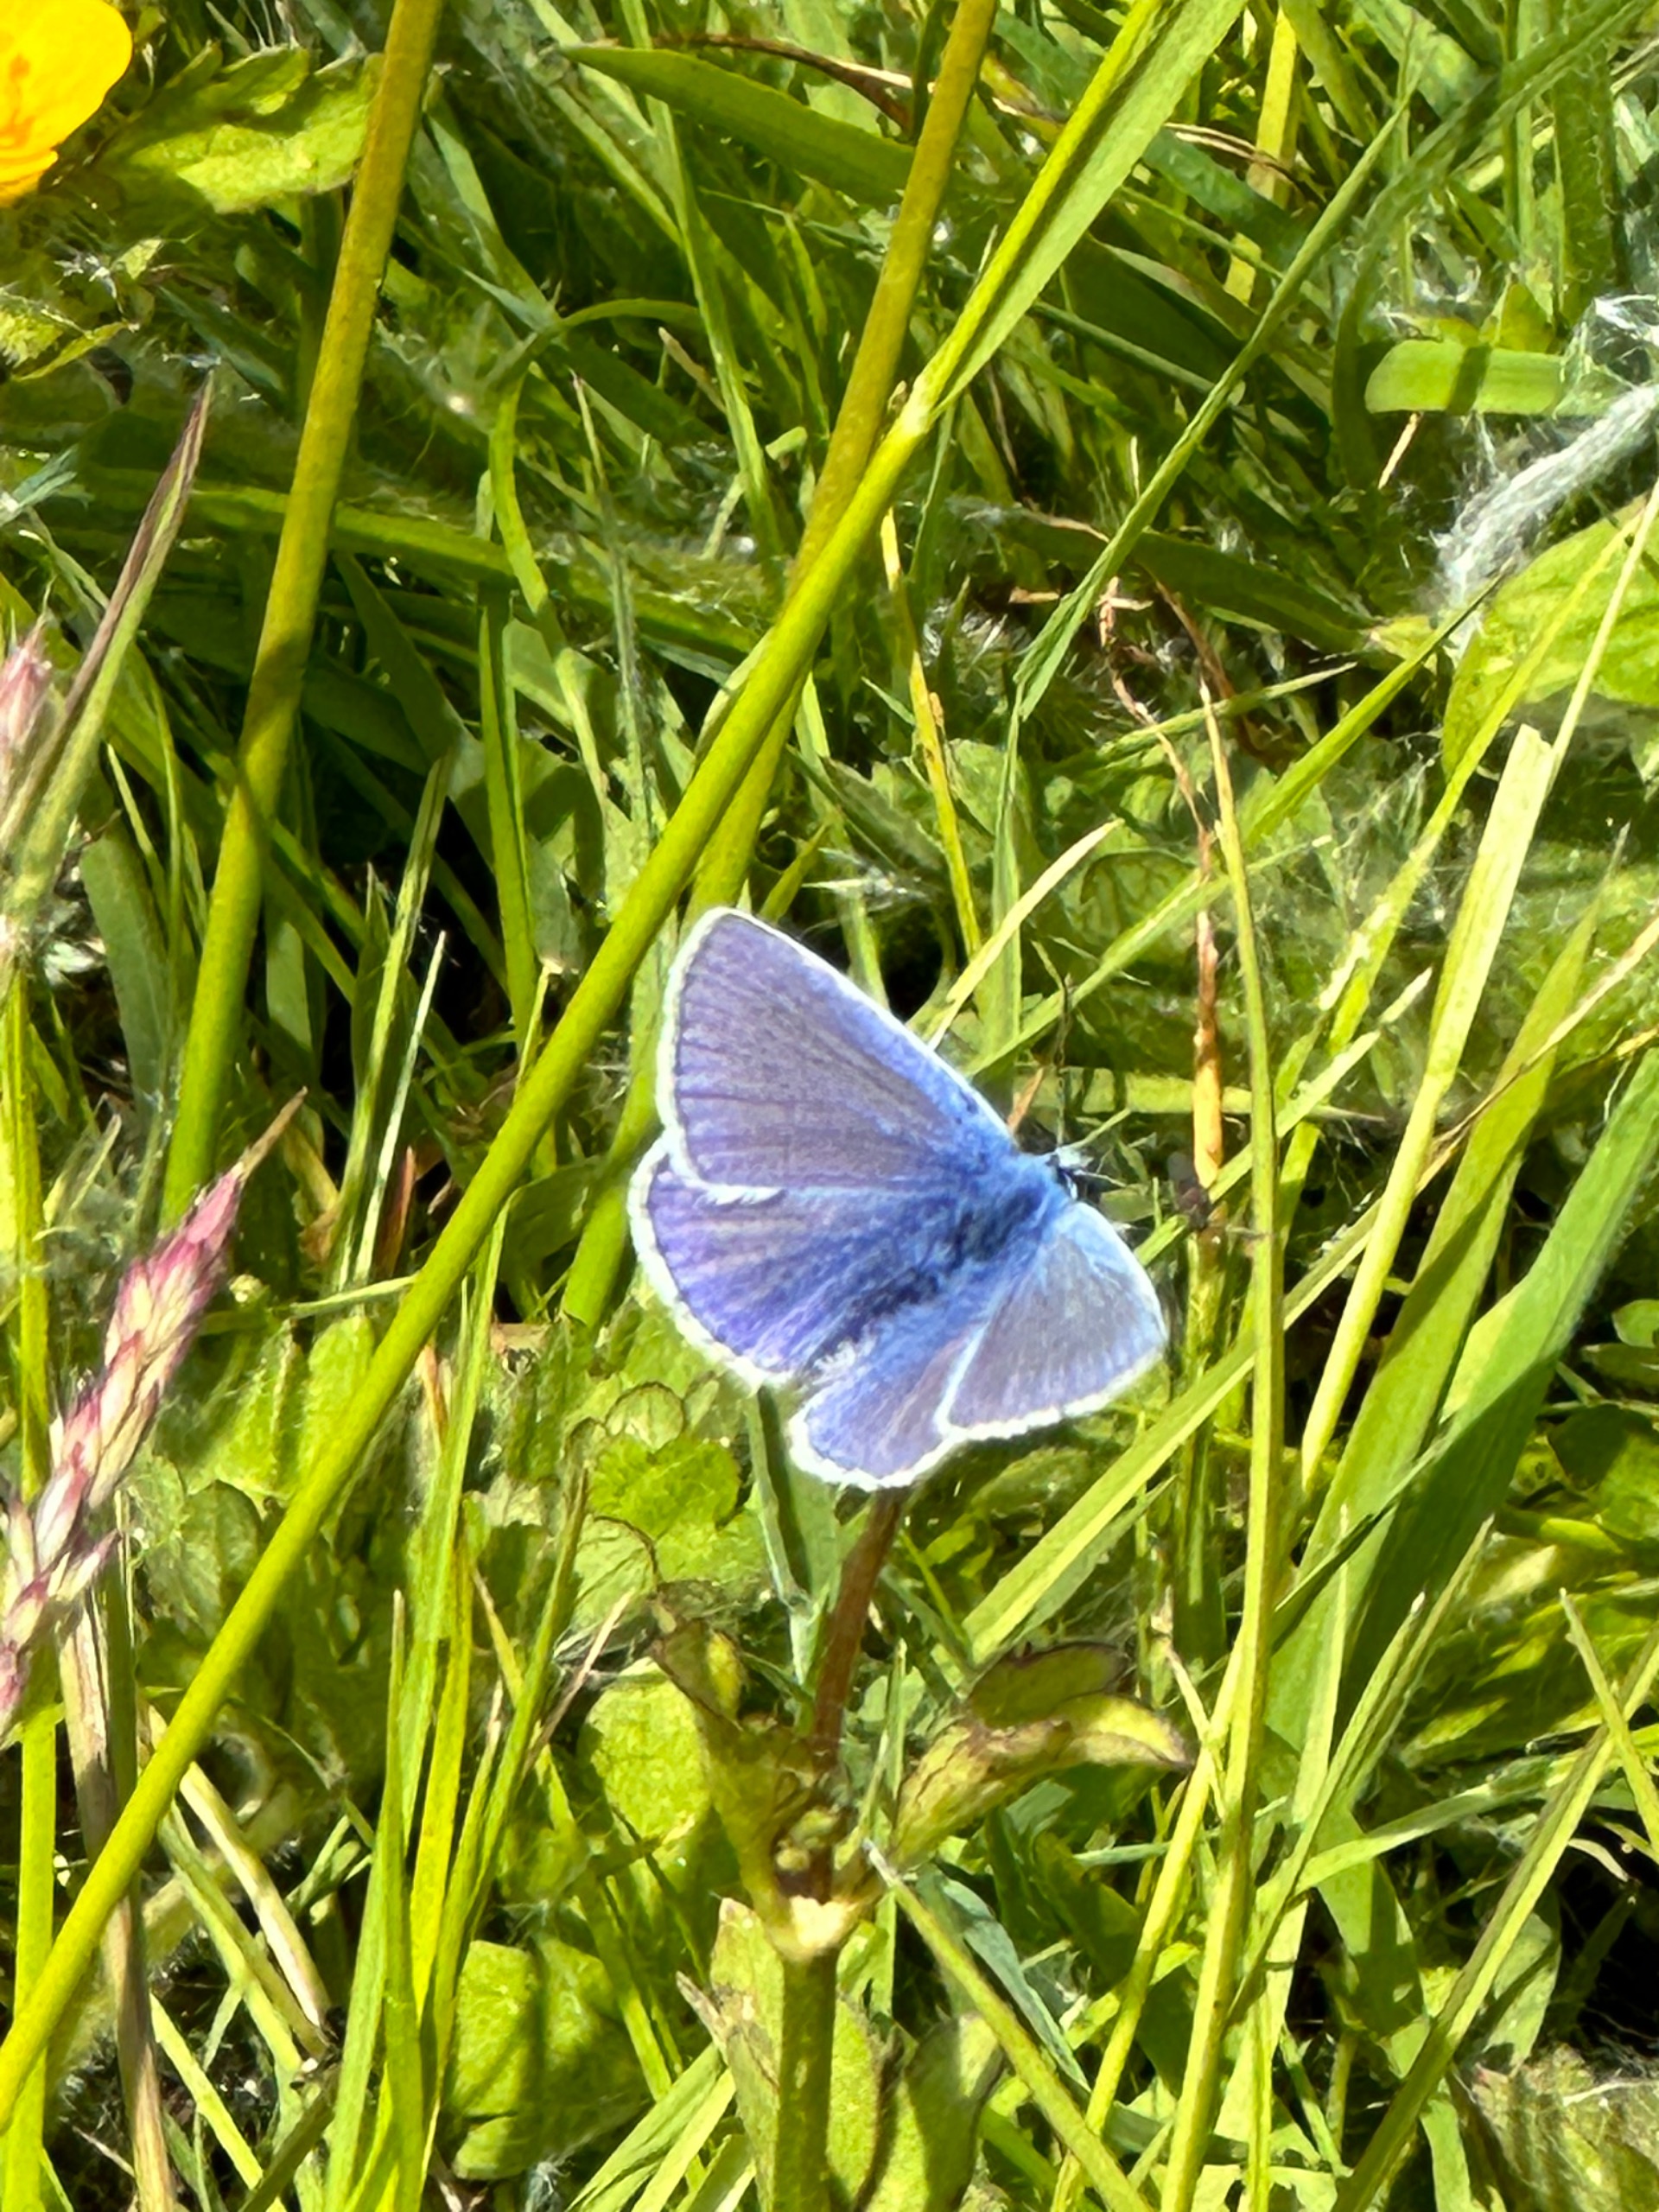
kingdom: Animalia
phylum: Arthropoda
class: Insecta
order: Lepidoptera
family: Lycaenidae
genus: Polyommatus
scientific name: Polyommatus icarus
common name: Almindelig blåfugl
